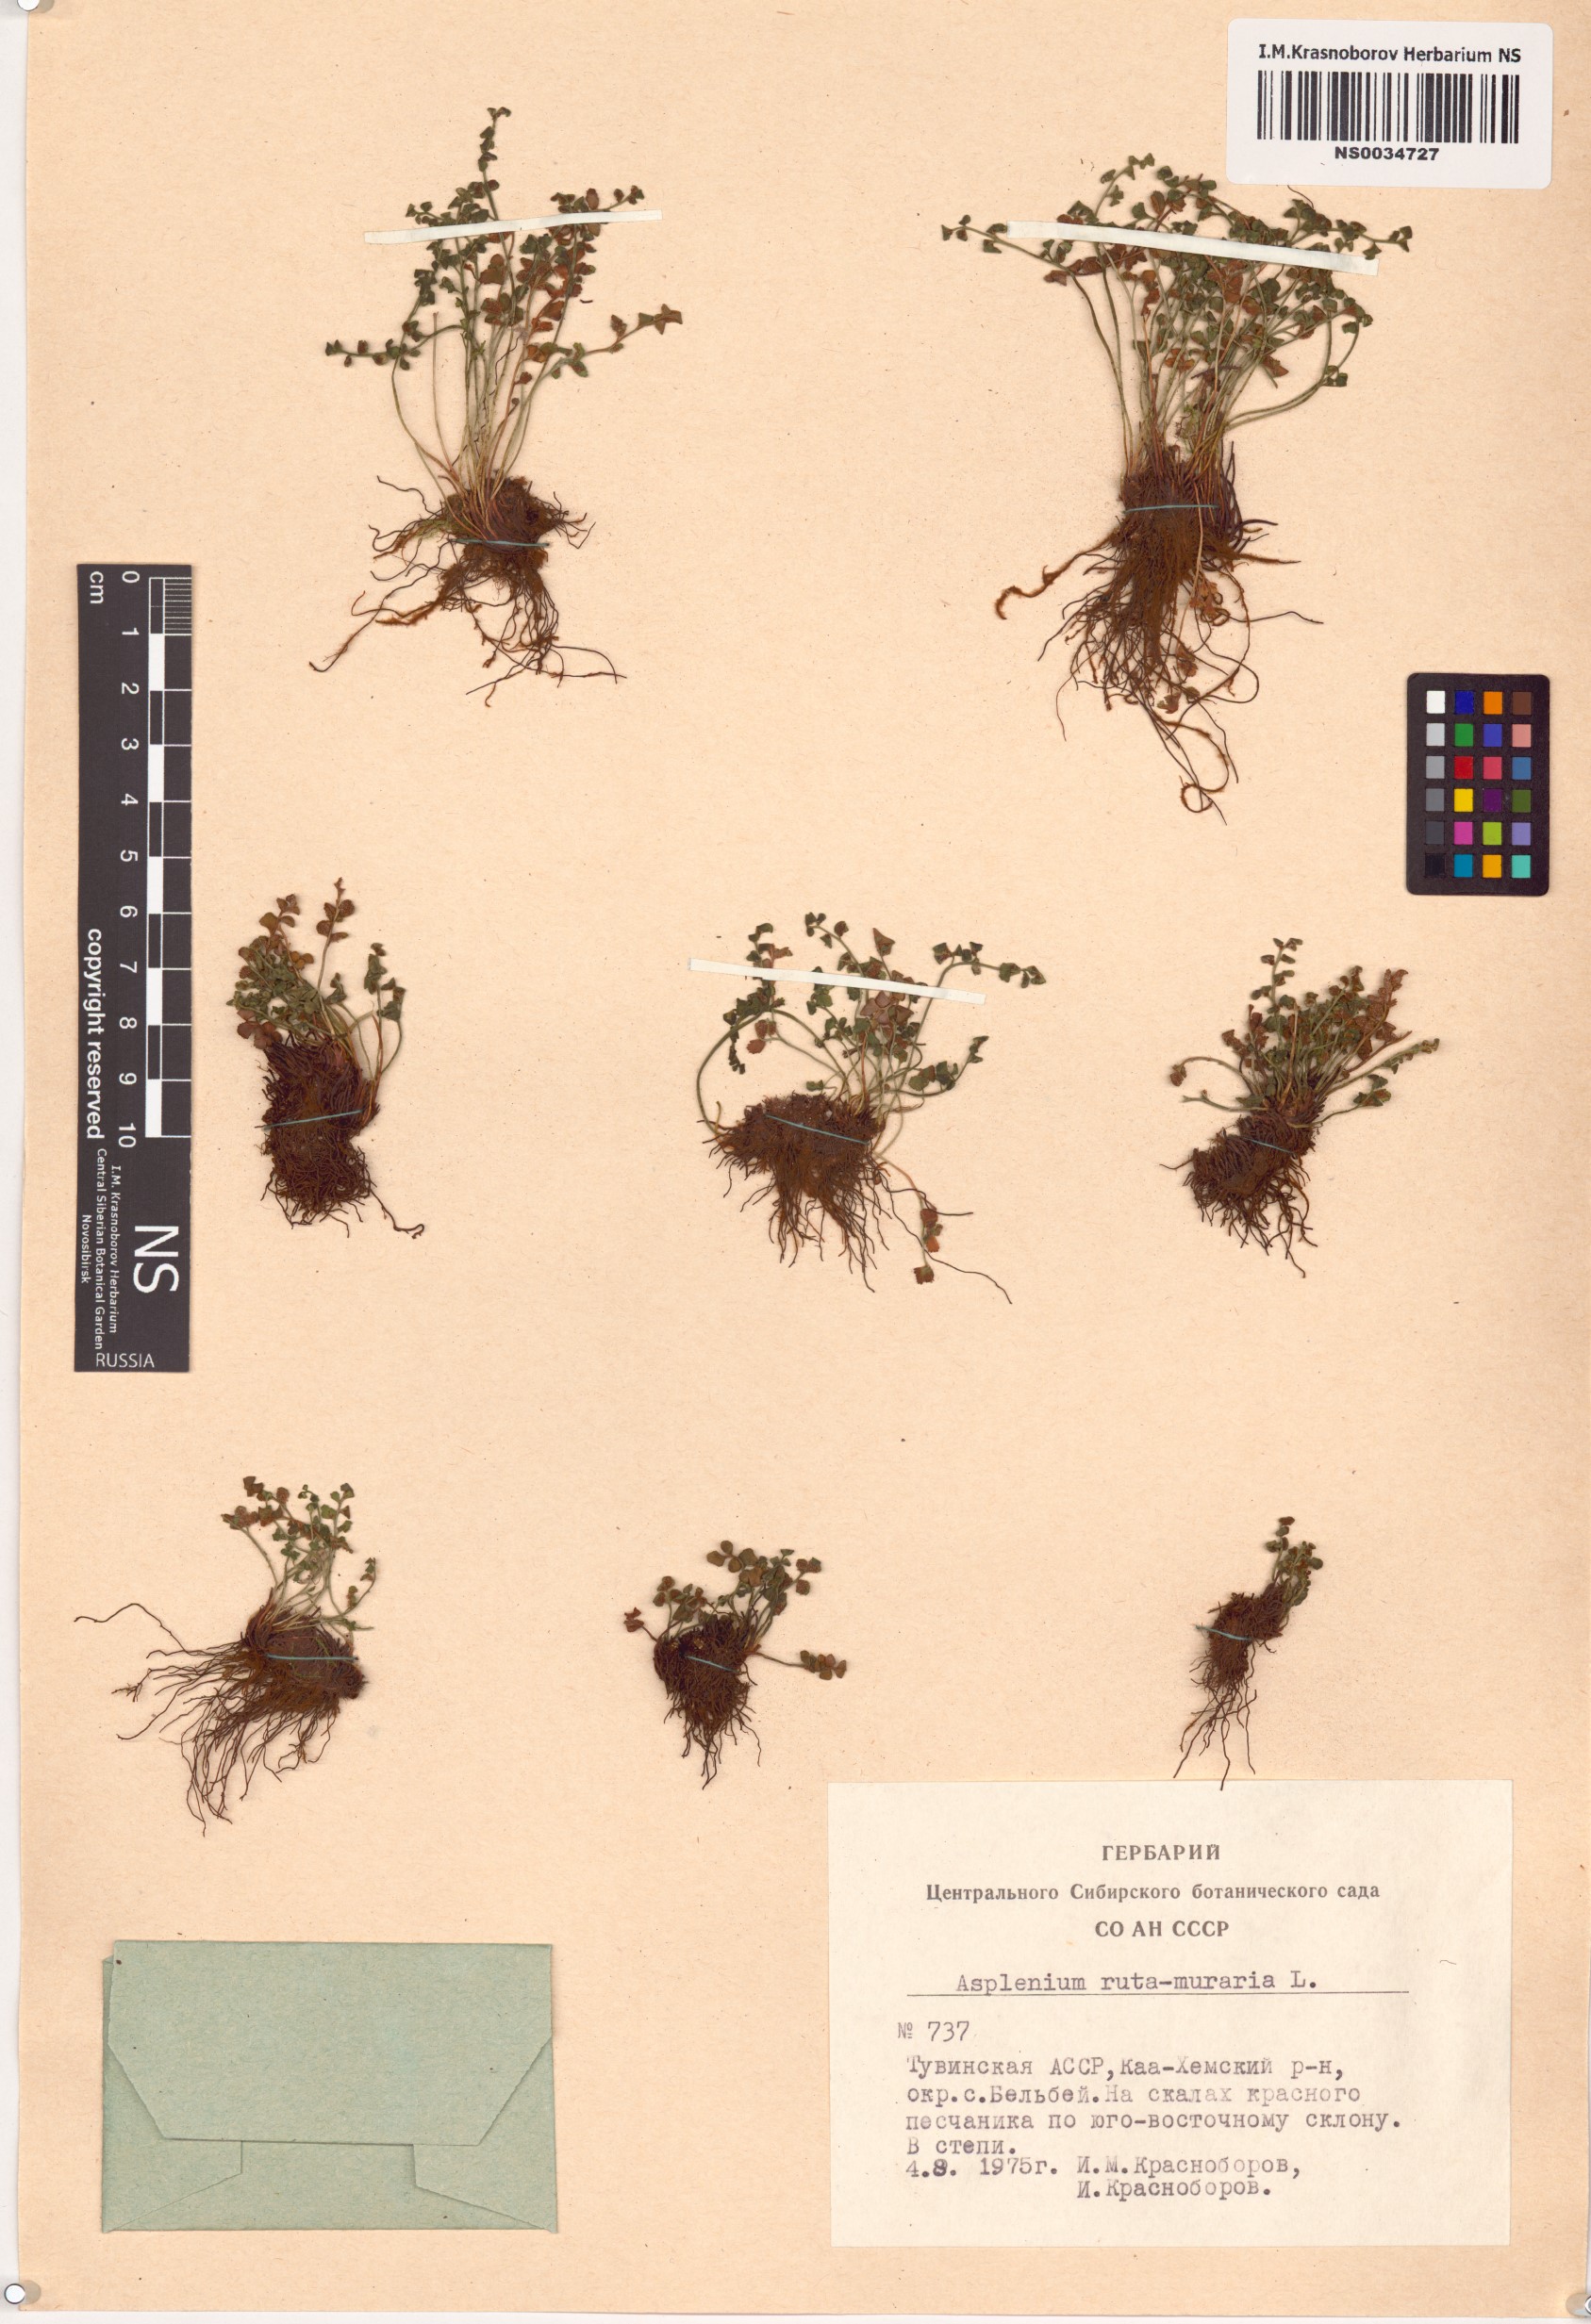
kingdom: Plantae
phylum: Tracheophyta
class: Polypodiopsida
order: Polypodiales
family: Aspleniaceae
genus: Asplenium
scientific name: Asplenium ruta-muraria
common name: Wall-rue
